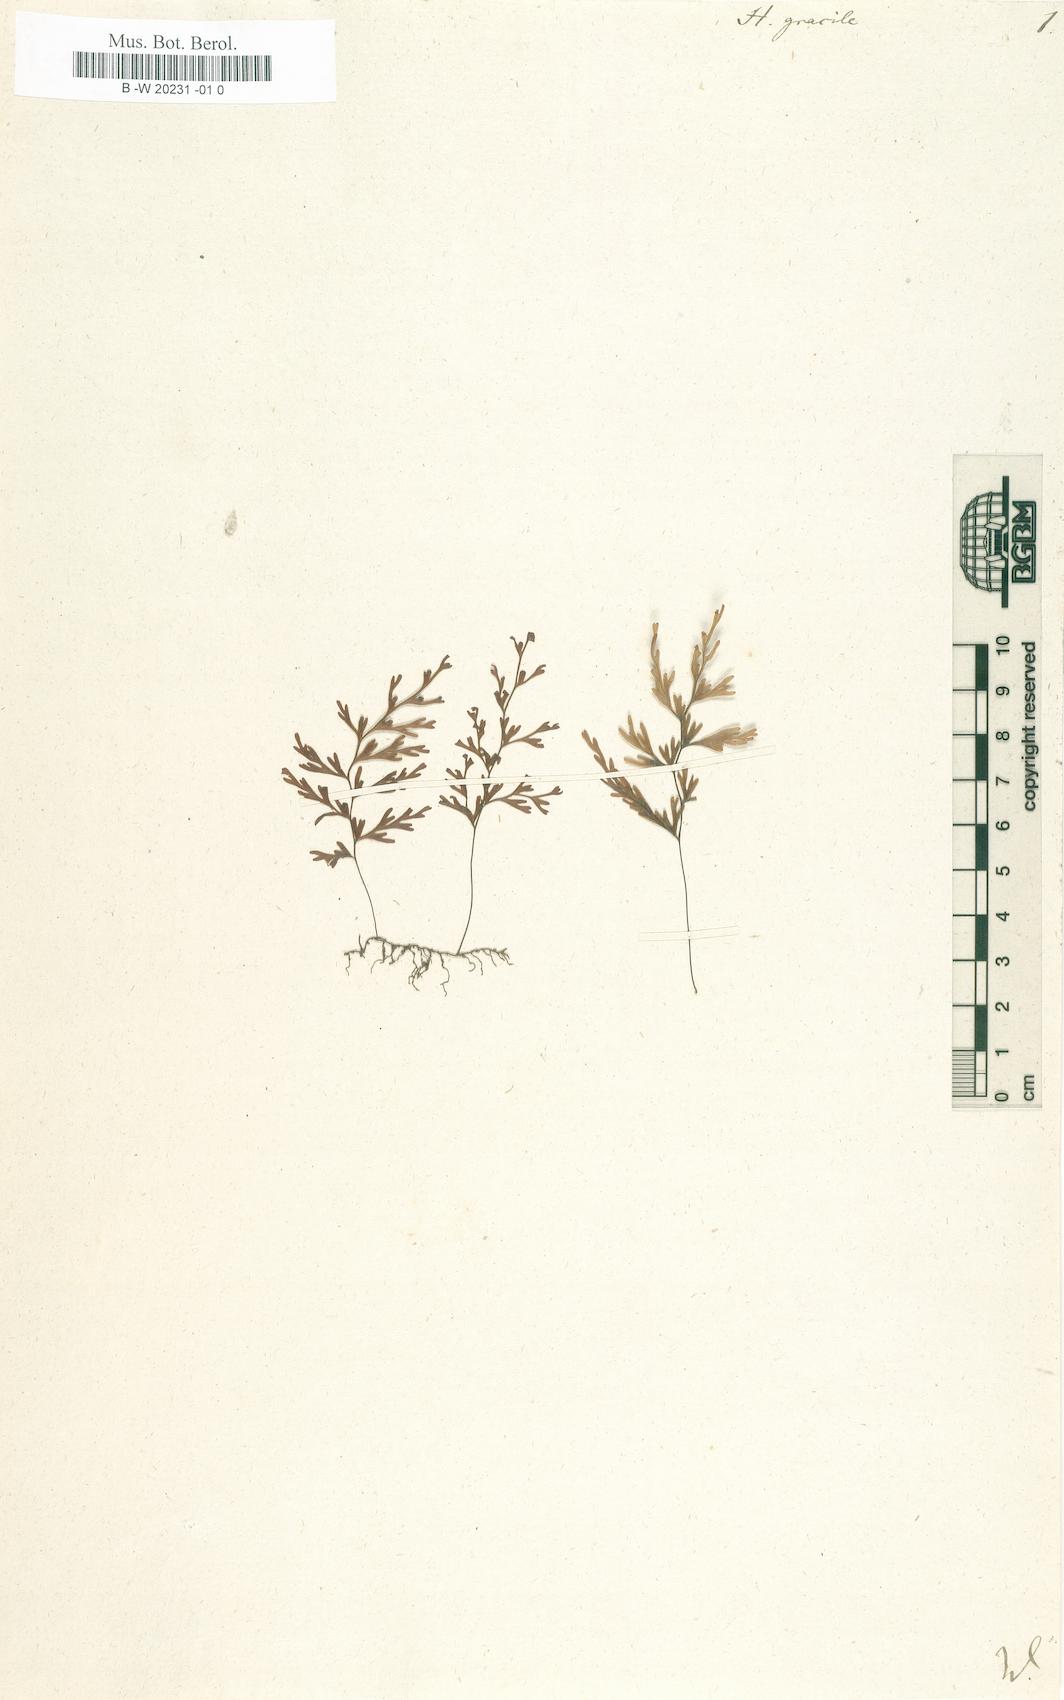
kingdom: Plantae
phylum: Tracheophyta
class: Polypodiopsida
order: Hymenophyllales
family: Hymenophyllaceae
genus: Hymenophyllum
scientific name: Hymenophyllum
